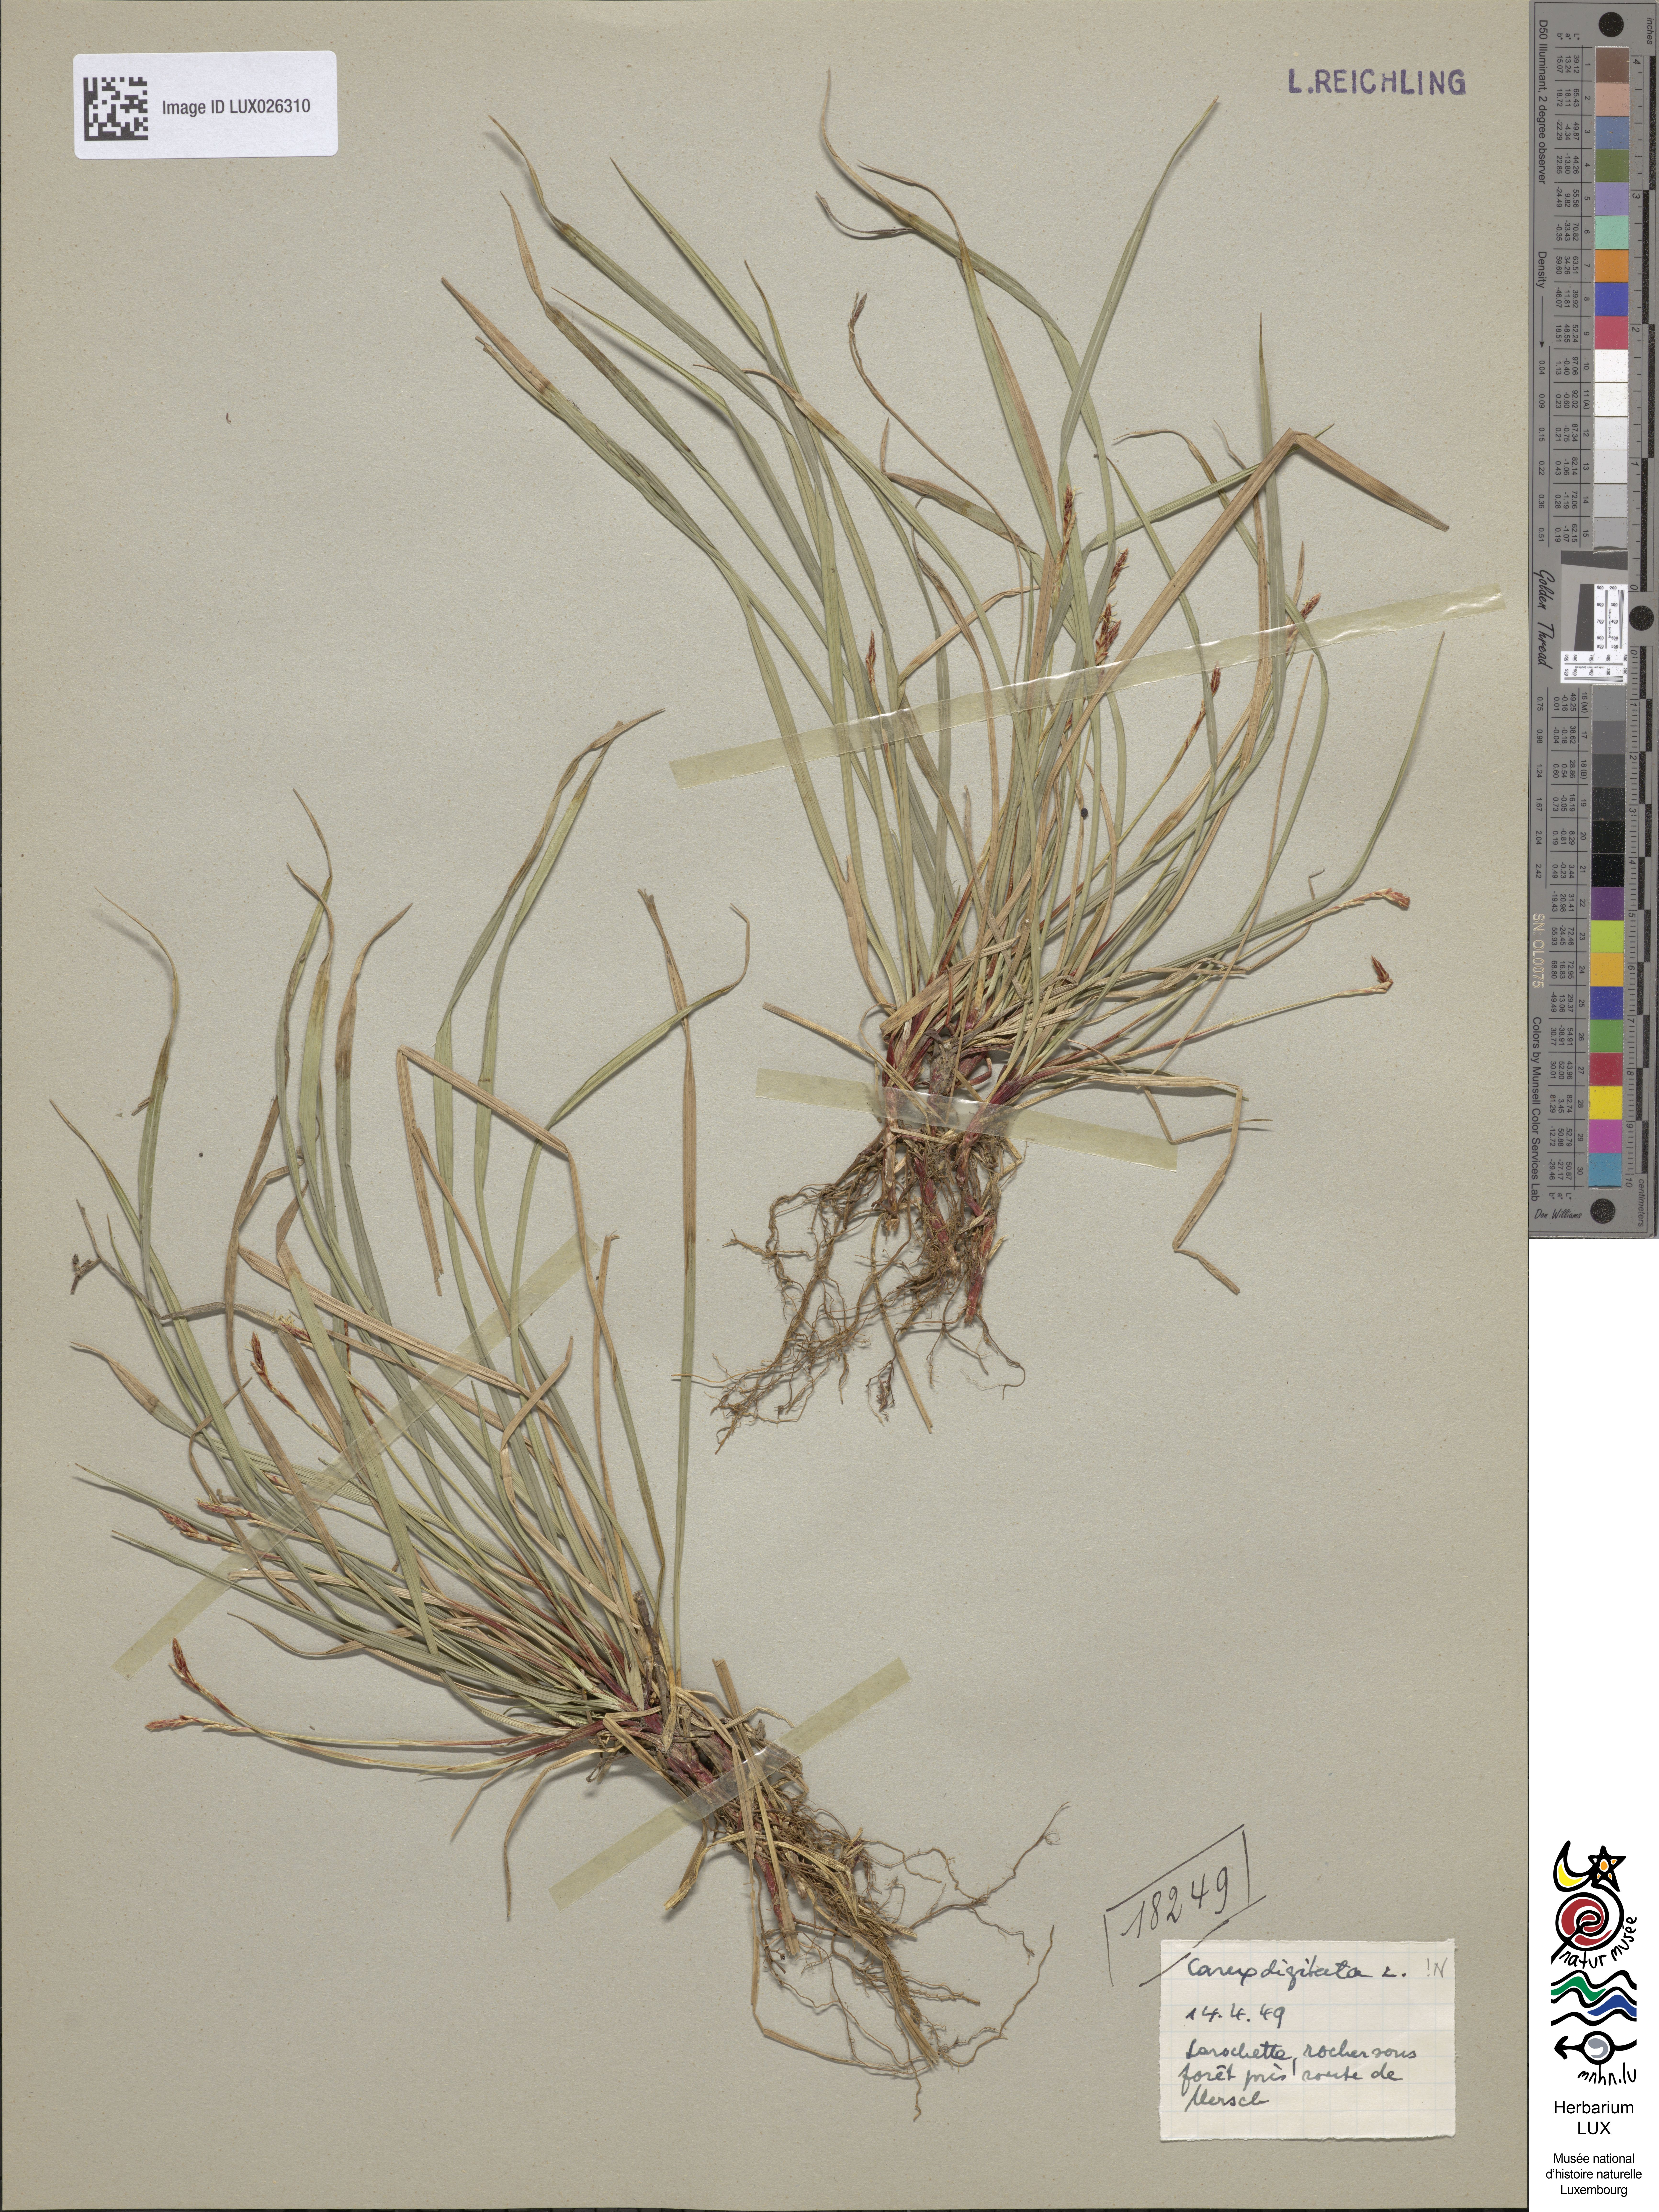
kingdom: Plantae
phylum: Tracheophyta
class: Liliopsida
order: Poales
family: Cyperaceae
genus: Carex
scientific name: Carex digitata
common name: Fingered sedge
